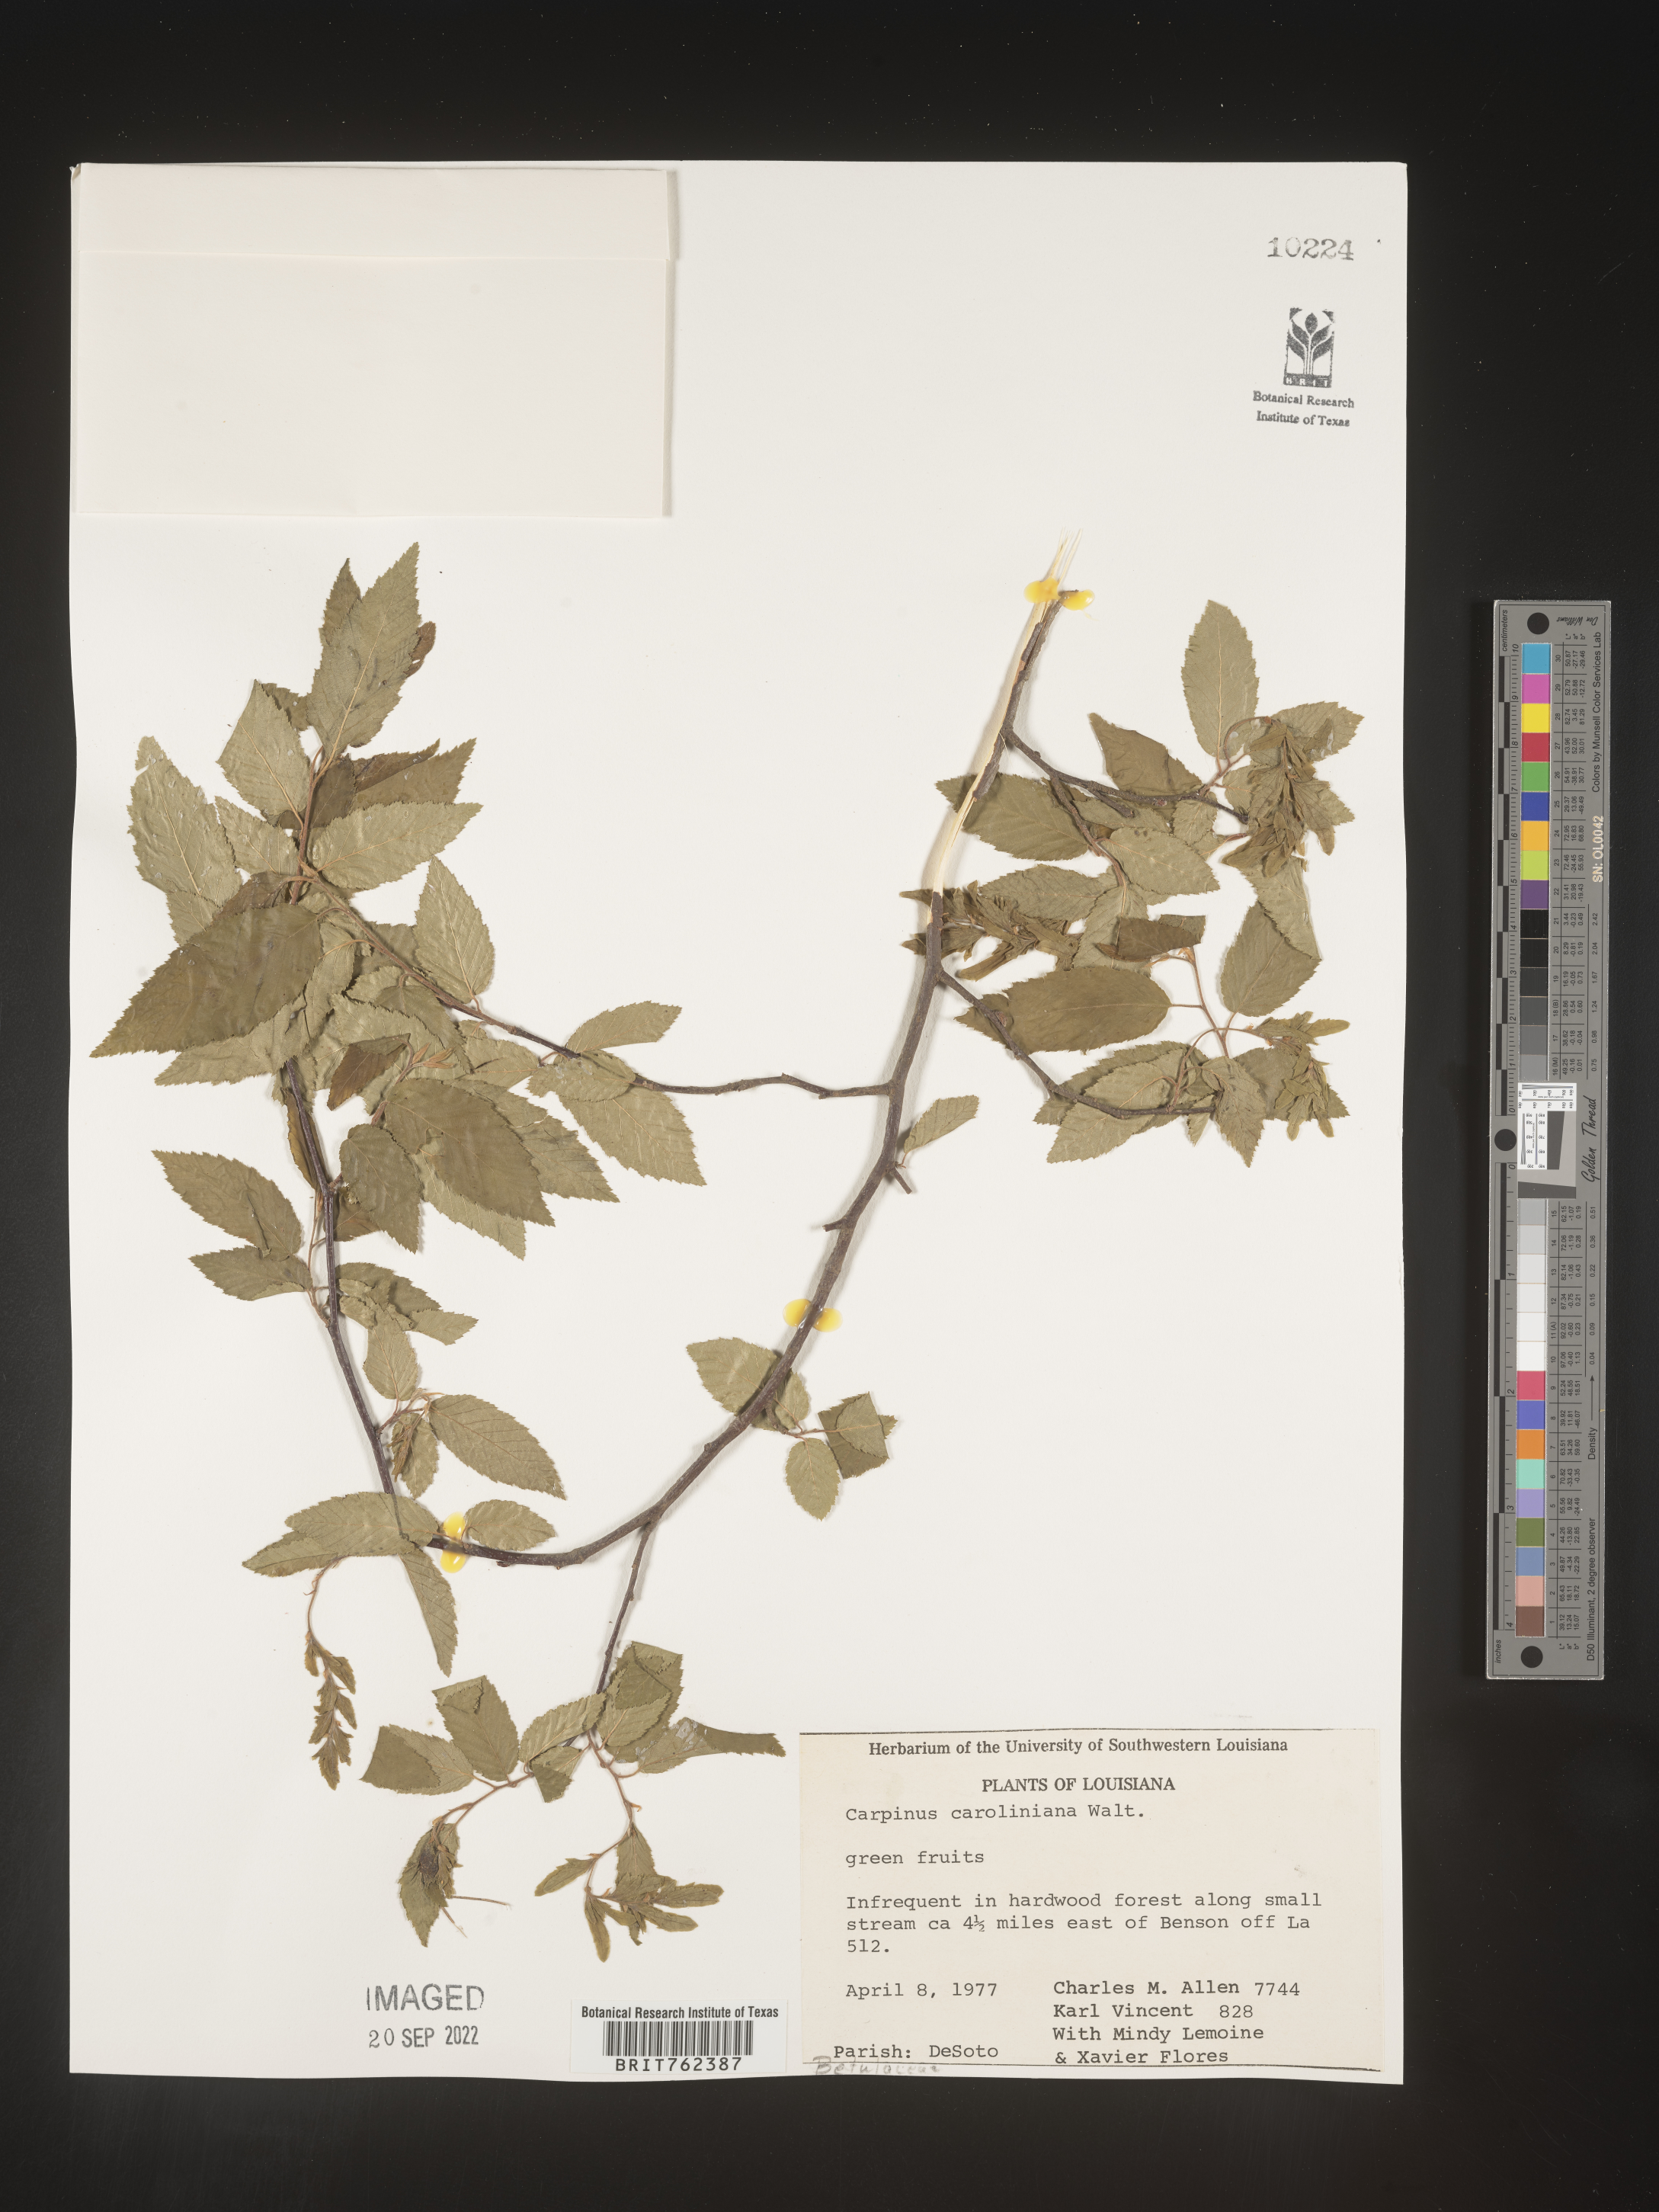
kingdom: Plantae
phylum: Tracheophyta
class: Magnoliopsida
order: Fagales
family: Betulaceae
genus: Carpinus
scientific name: Carpinus caroliniana
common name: American hornbeam
